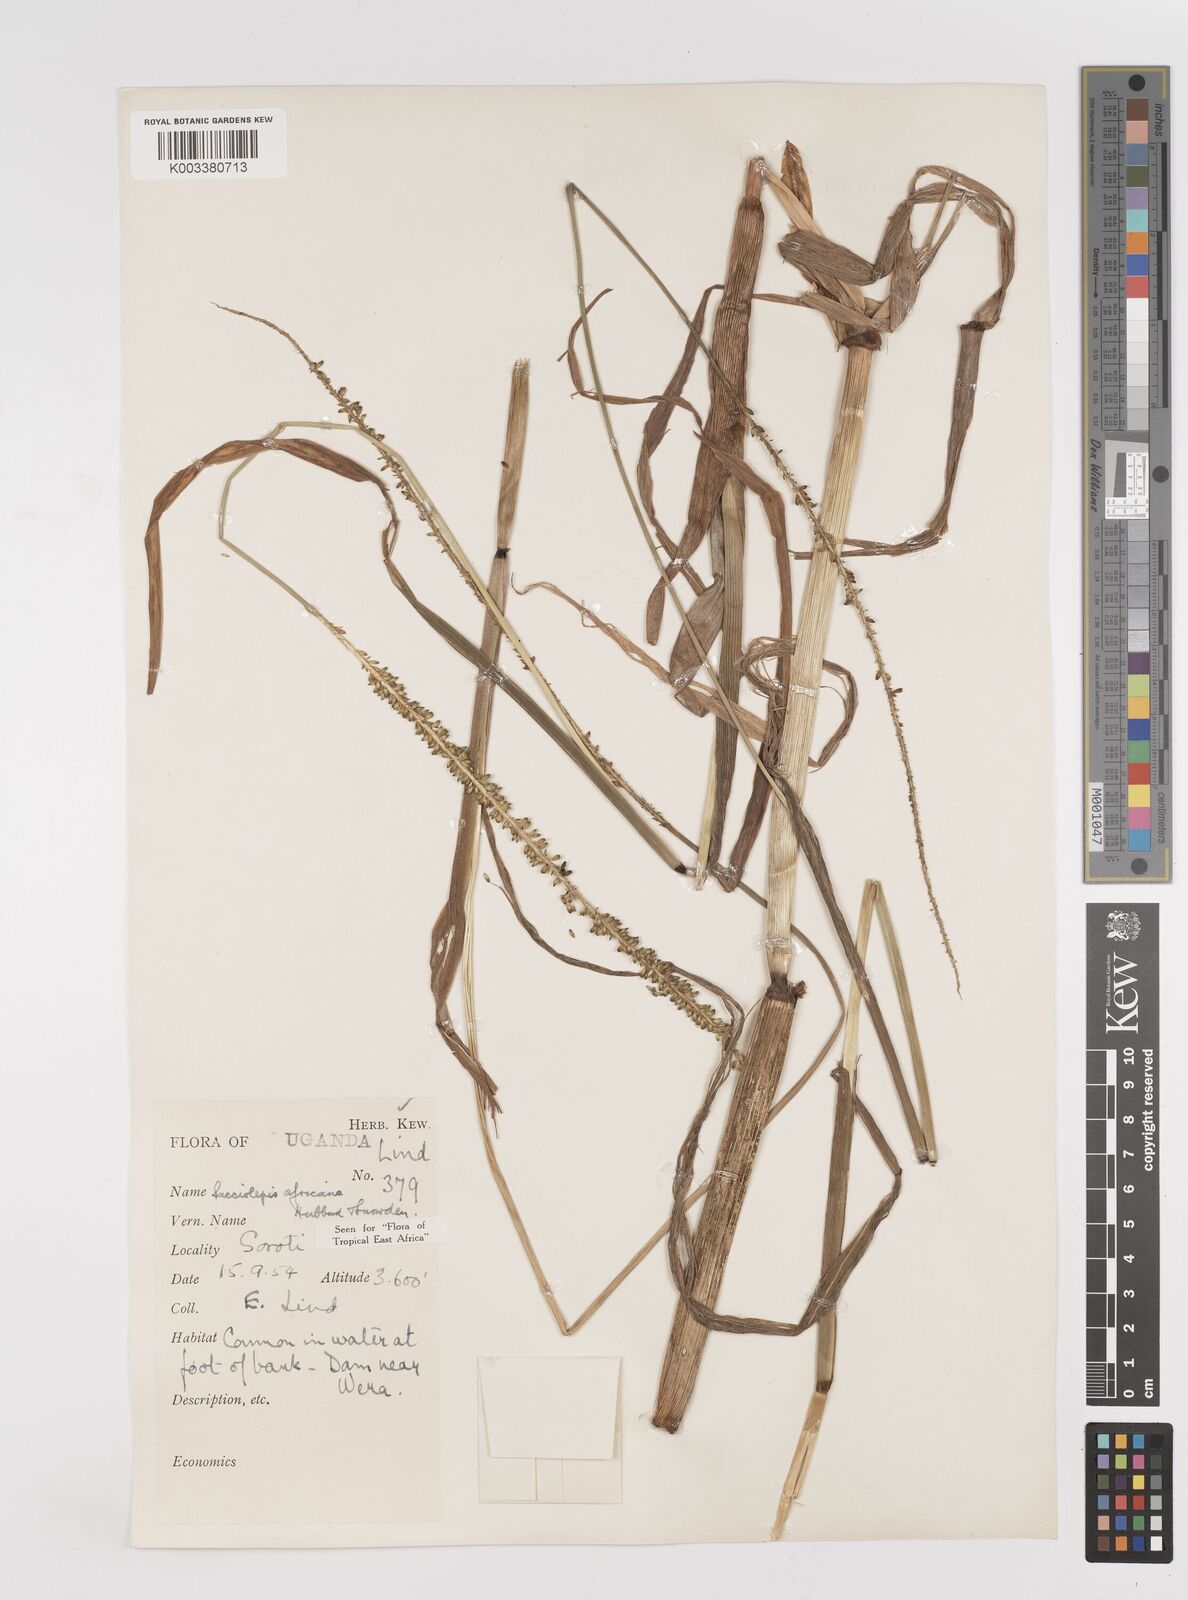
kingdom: Plantae
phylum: Tracheophyta
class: Liliopsida
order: Poales
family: Poaceae
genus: Sacciolepis
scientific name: Sacciolepis africana
